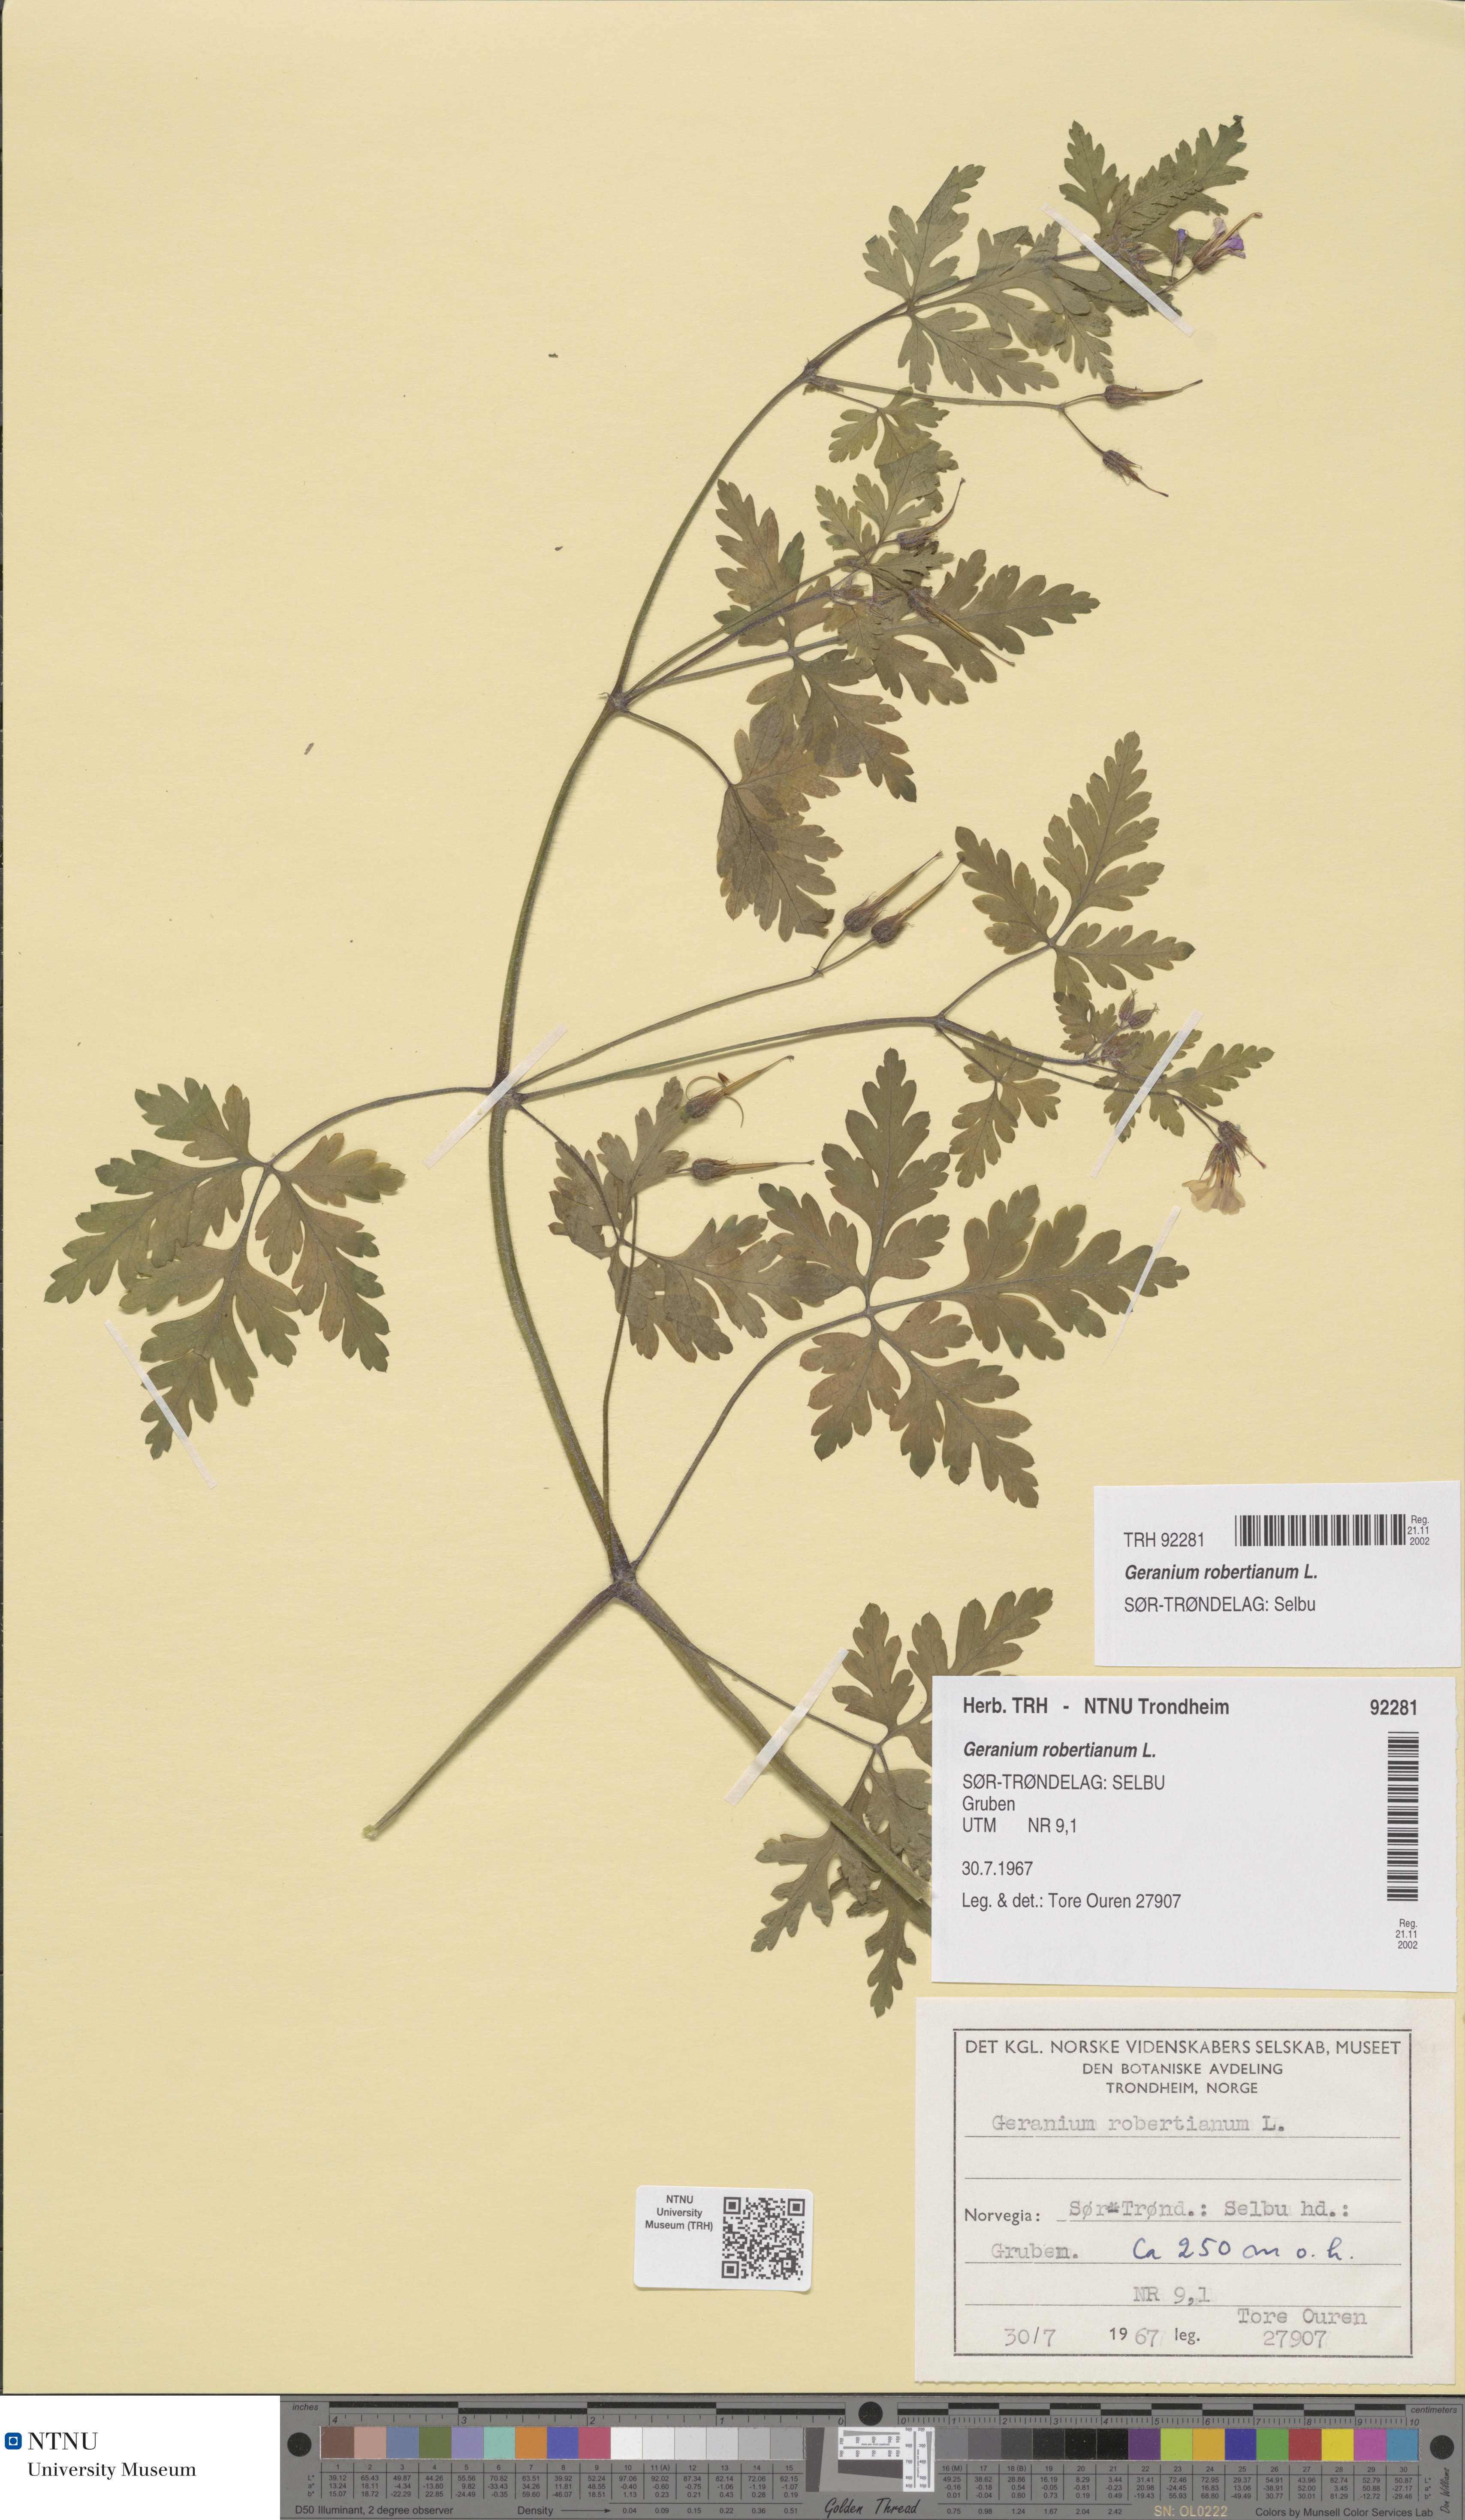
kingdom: Plantae
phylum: Tracheophyta
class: Magnoliopsida
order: Geraniales
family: Geraniaceae
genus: Geranium
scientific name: Geranium robertianum
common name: Herb-robert
